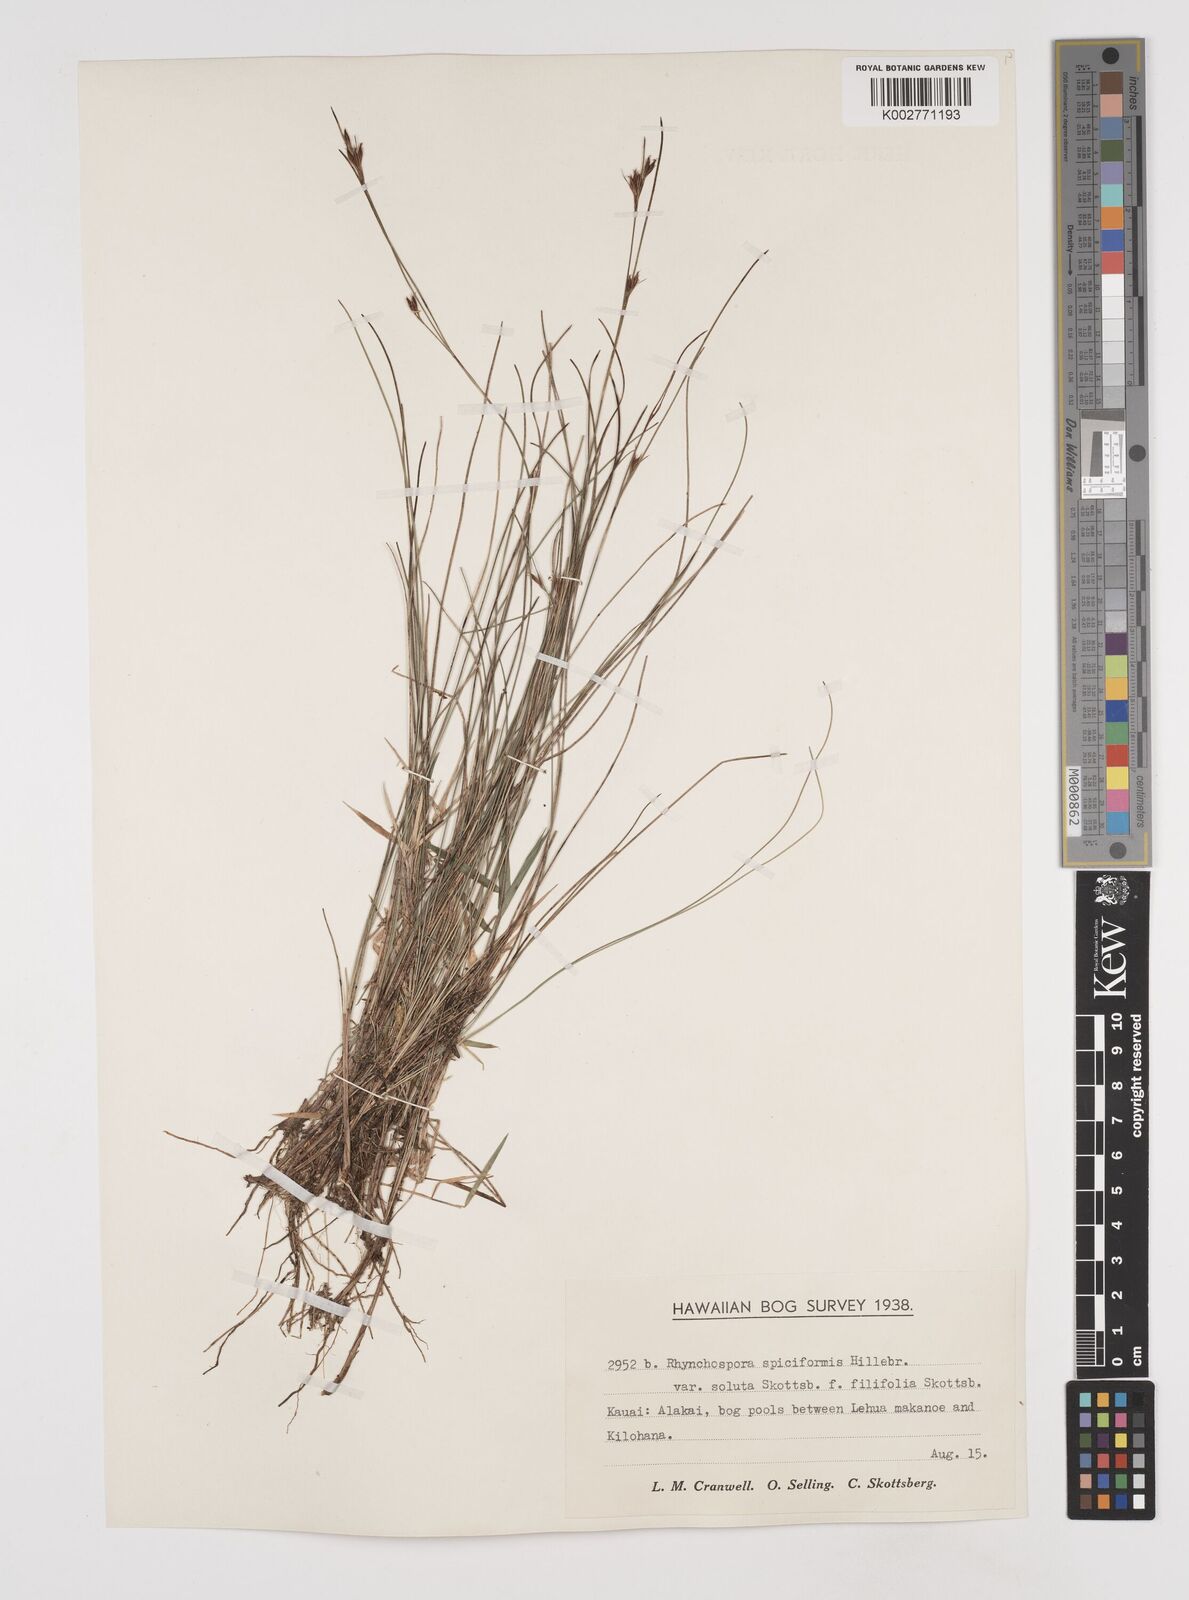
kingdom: Plantae
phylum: Tracheophyta
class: Liliopsida
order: Poales
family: Cyperaceae
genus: Rhynchospora
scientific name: Rhynchospora chinensis
